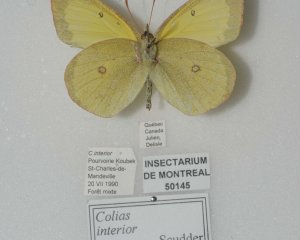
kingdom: Animalia
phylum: Arthropoda
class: Insecta
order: Lepidoptera
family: Pieridae
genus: Colias
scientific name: Colias interior
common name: Pink-edged Sulphur
